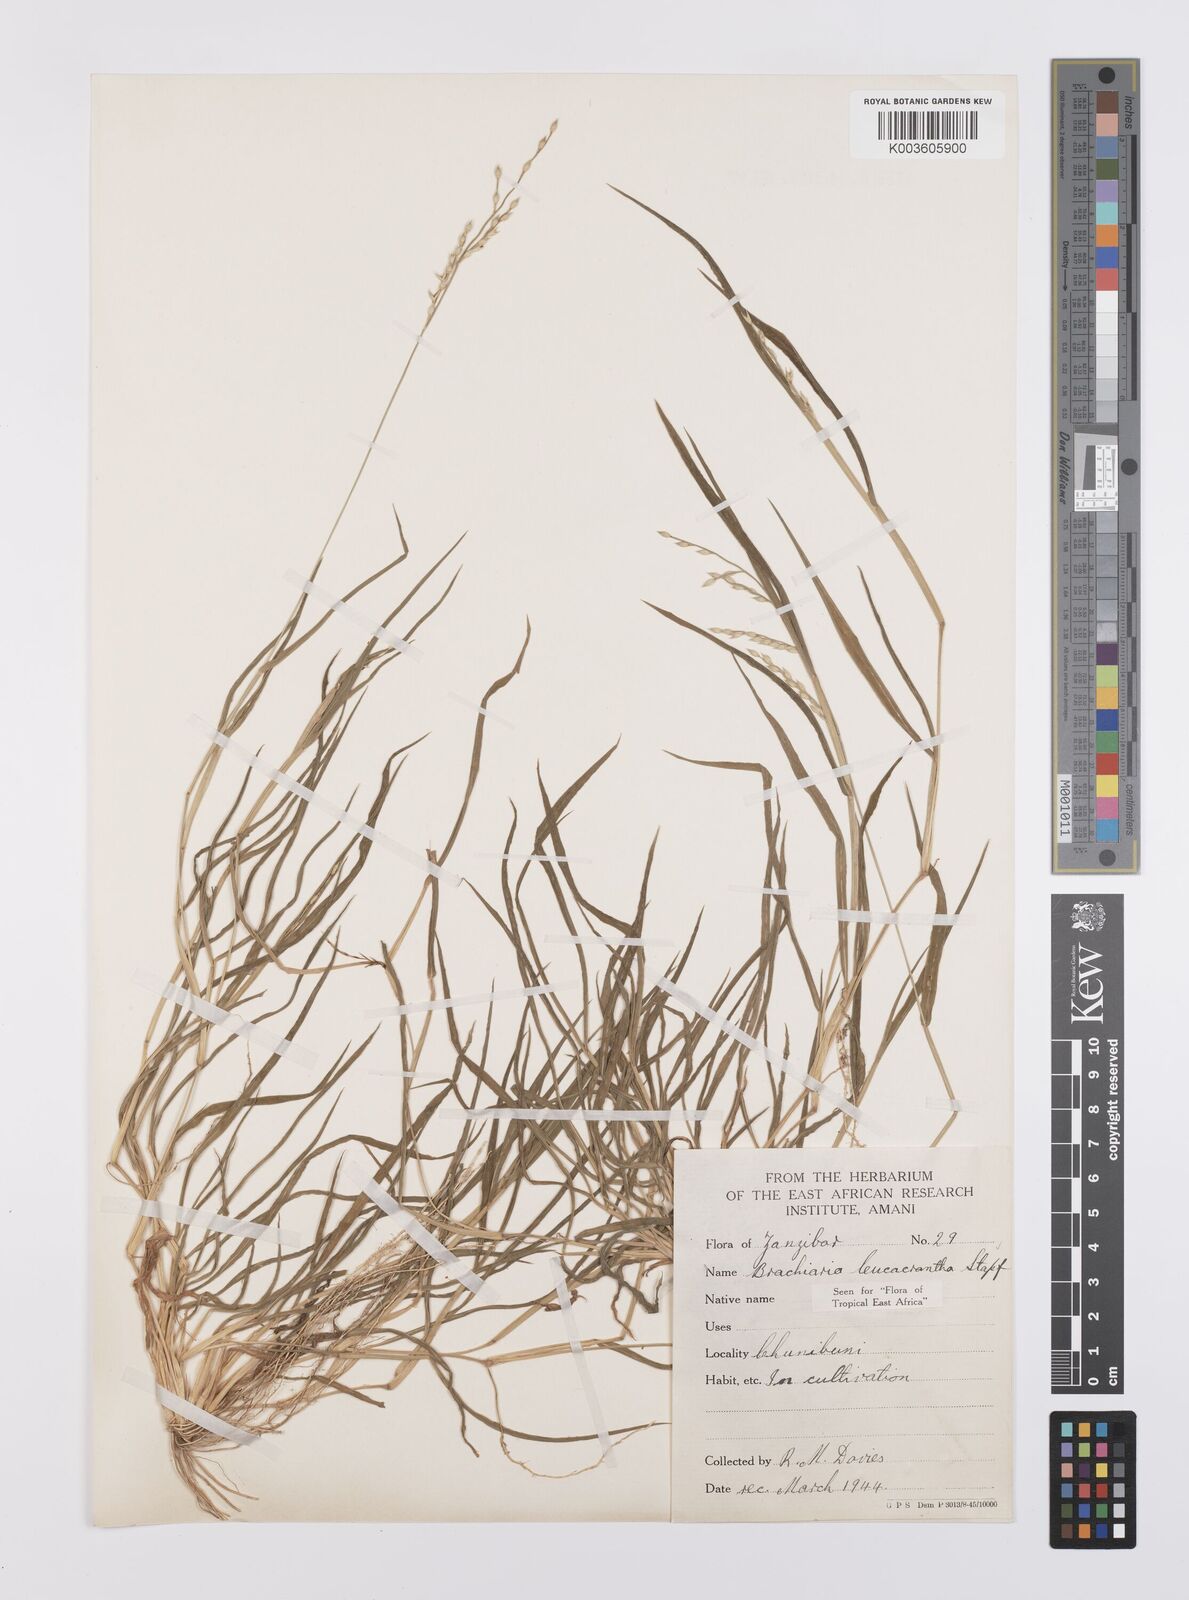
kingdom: Plantae
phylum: Tracheophyta
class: Liliopsida
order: Poales
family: Poaceae
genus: Urochloa
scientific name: Urochloa xantholeuca
